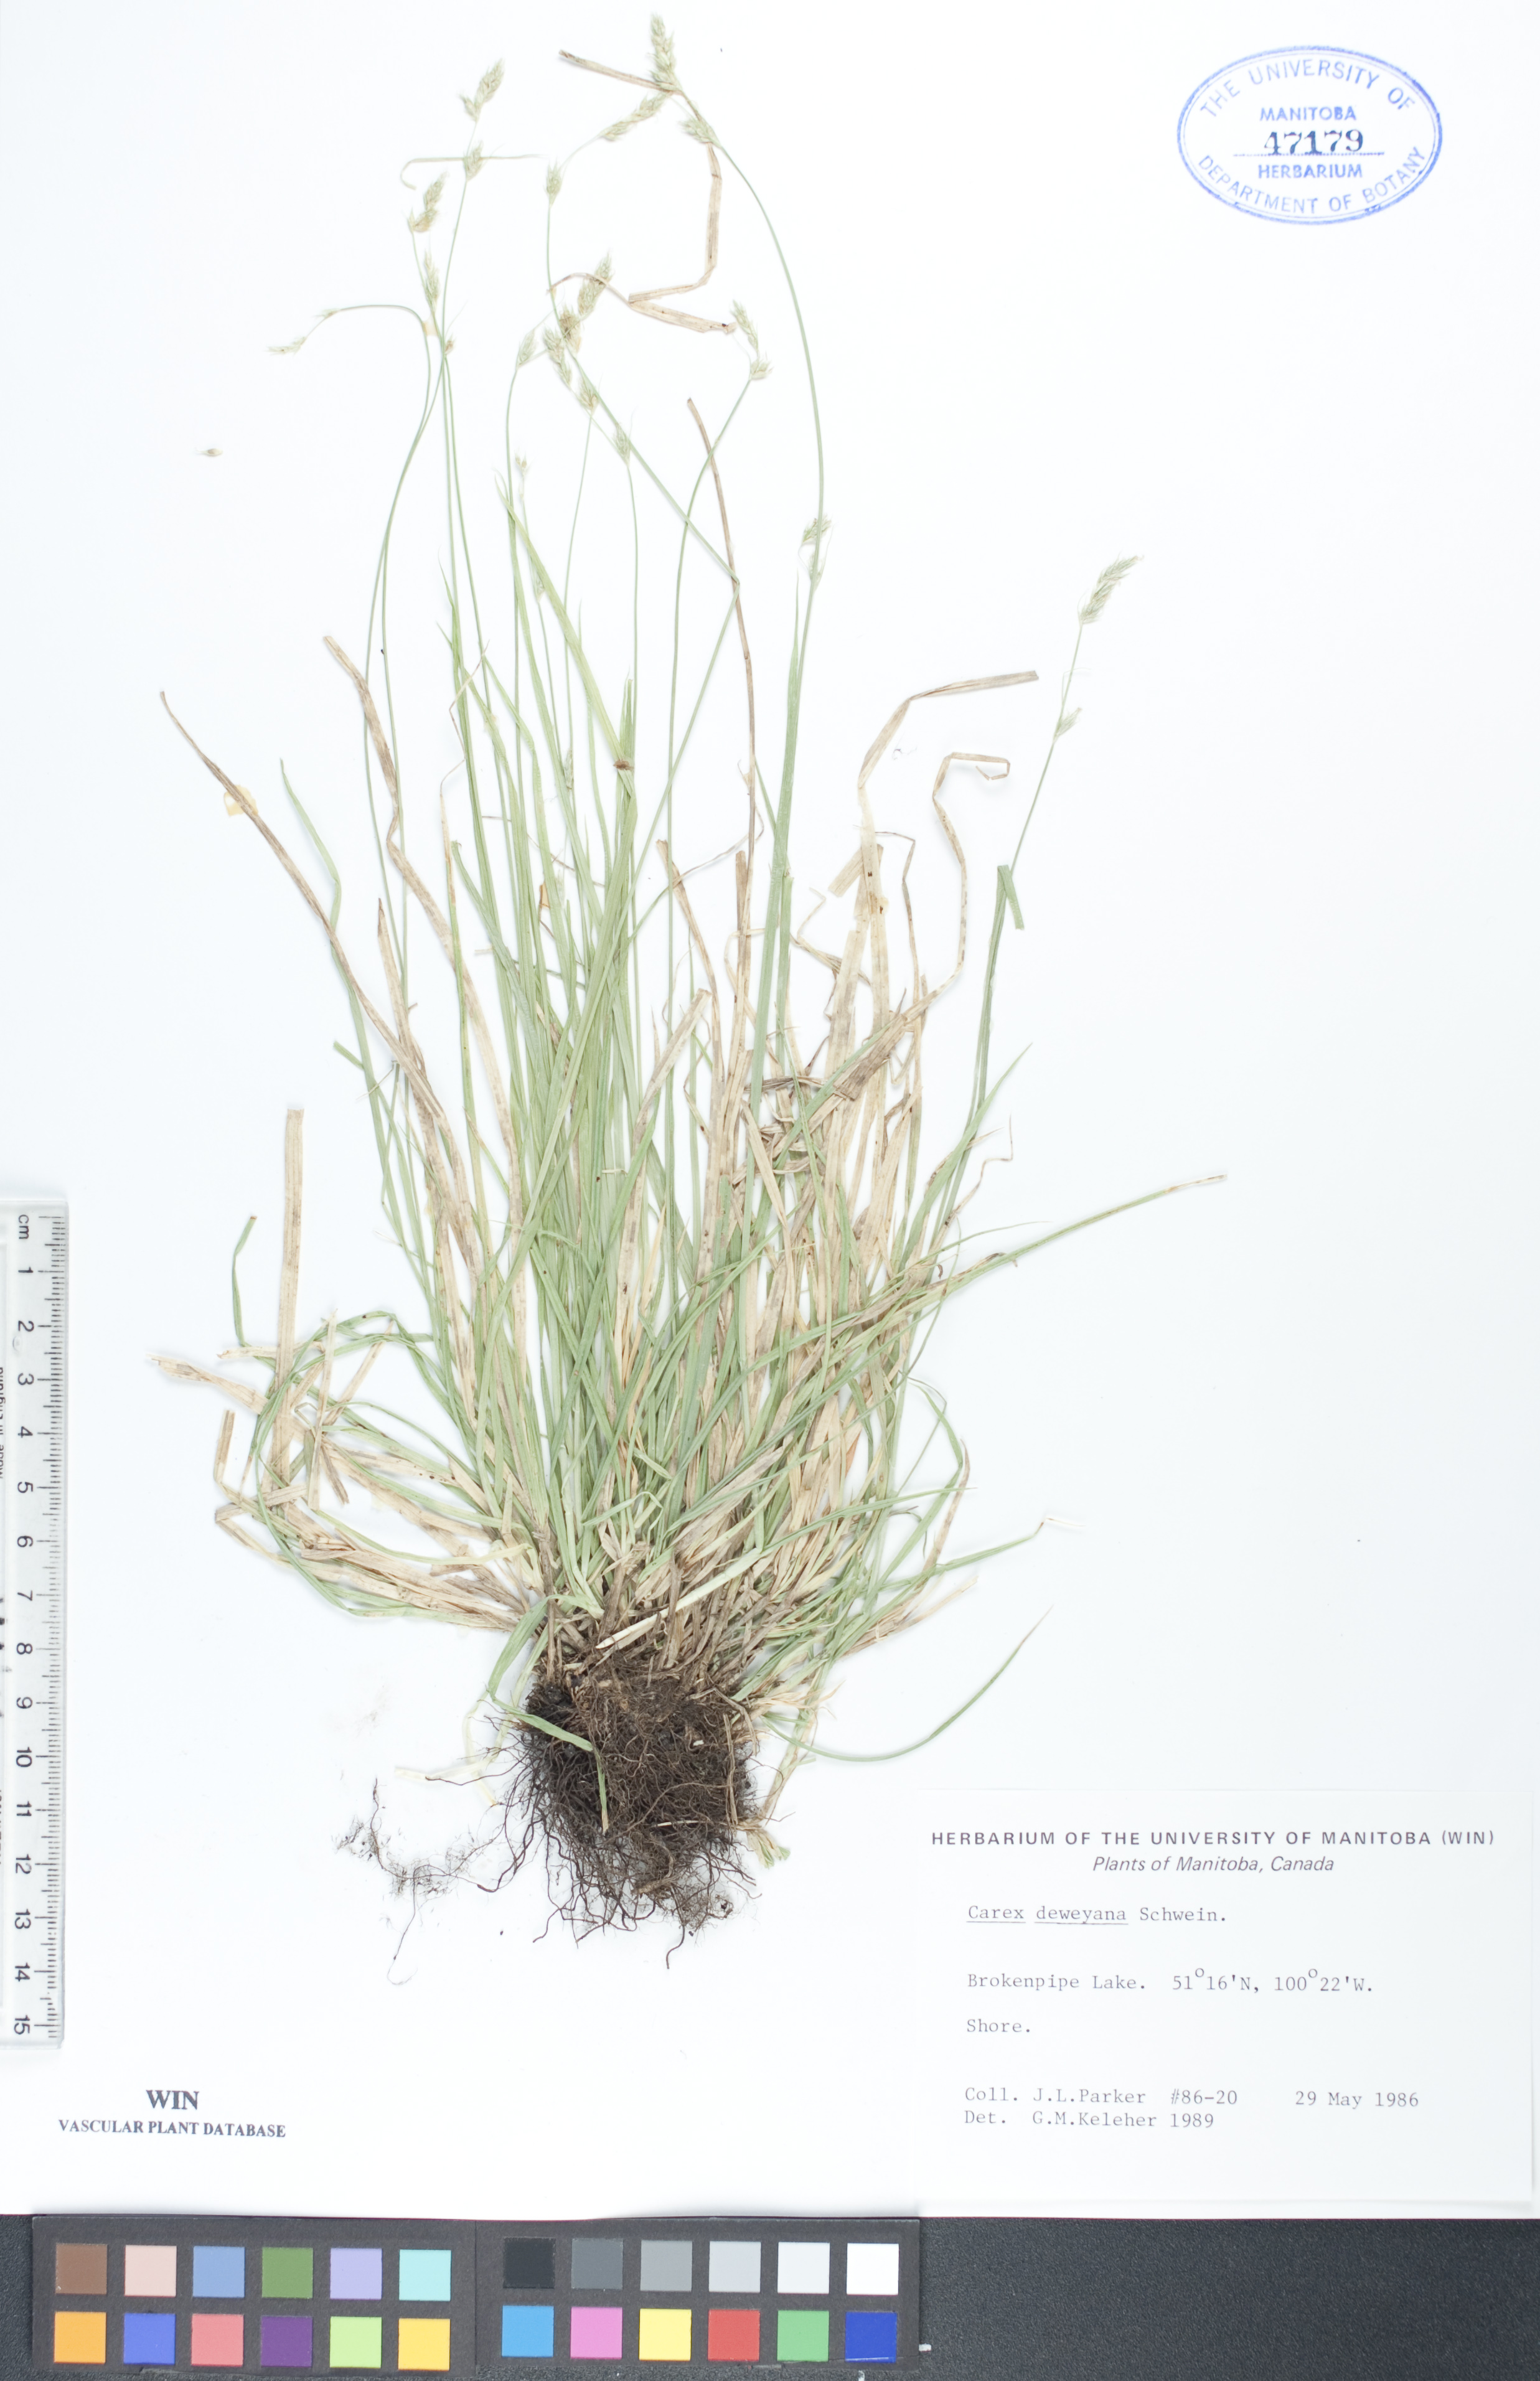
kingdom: Plantae
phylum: Tracheophyta
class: Liliopsida
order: Poales
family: Cyperaceae
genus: Carex
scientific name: Carex deweyana
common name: Dewey's sedge
